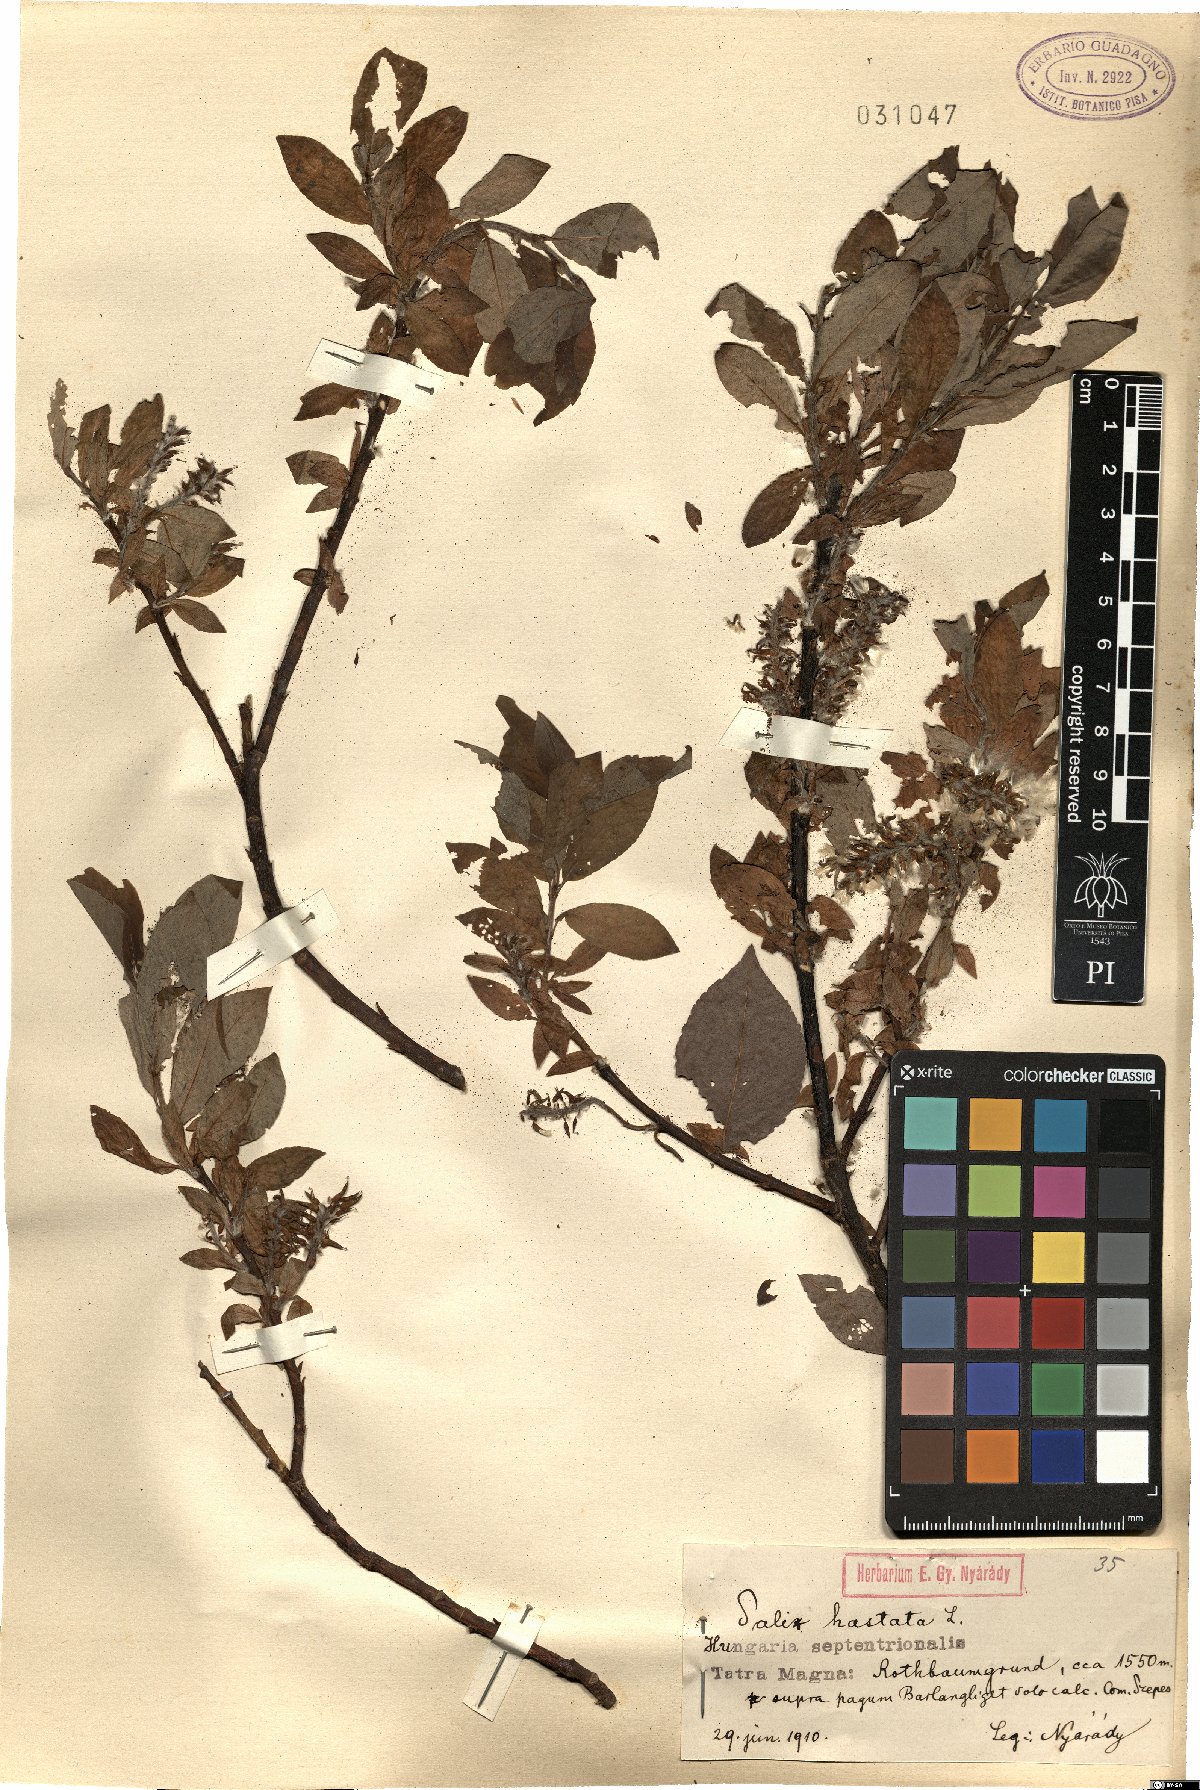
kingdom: Plantae
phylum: Tracheophyta
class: Magnoliopsida
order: Malpighiales
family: Salicaceae
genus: Salix
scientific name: Salix hastata
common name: Halberd willow
